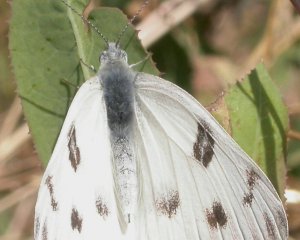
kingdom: Animalia
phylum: Arthropoda
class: Insecta
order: Lepidoptera
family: Pieridae
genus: Pontia
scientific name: Pontia protodice
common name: Checkered White
